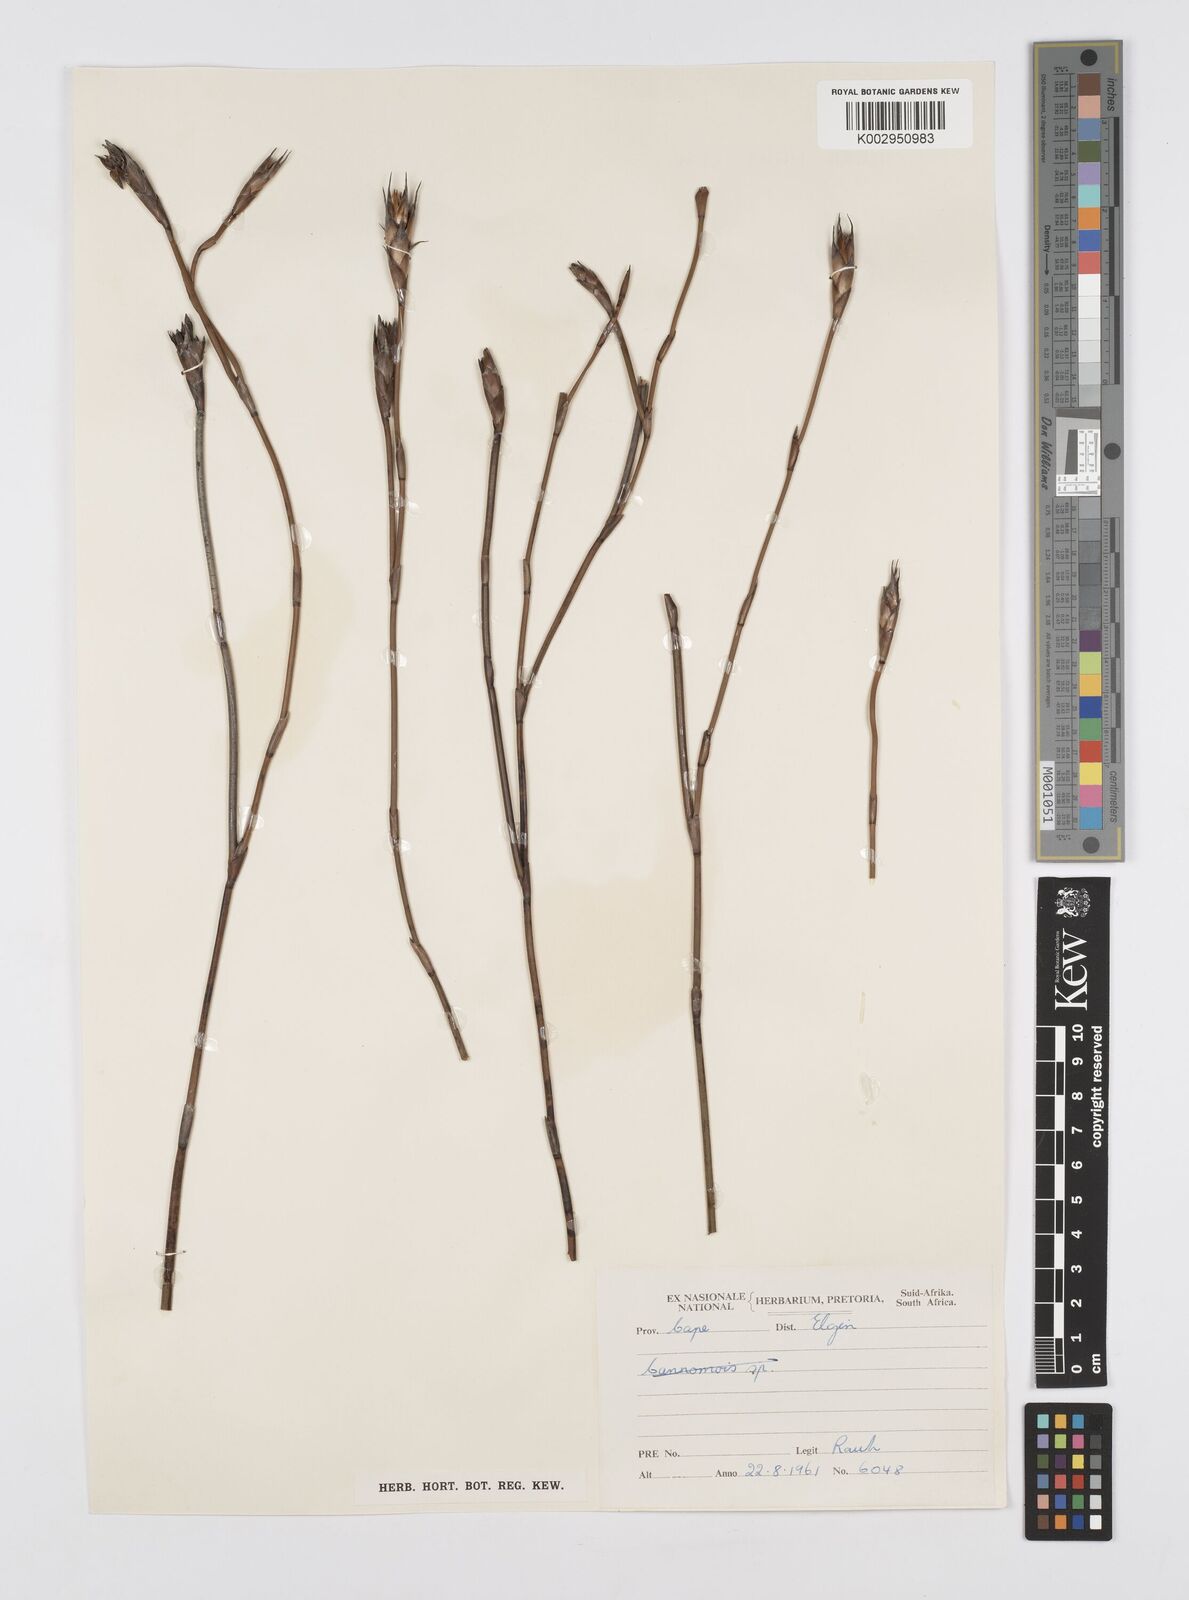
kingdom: Plantae
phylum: Tracheophyta
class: Liliopsida
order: Poales
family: Restionaceae
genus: Restio
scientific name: Restio egregius
